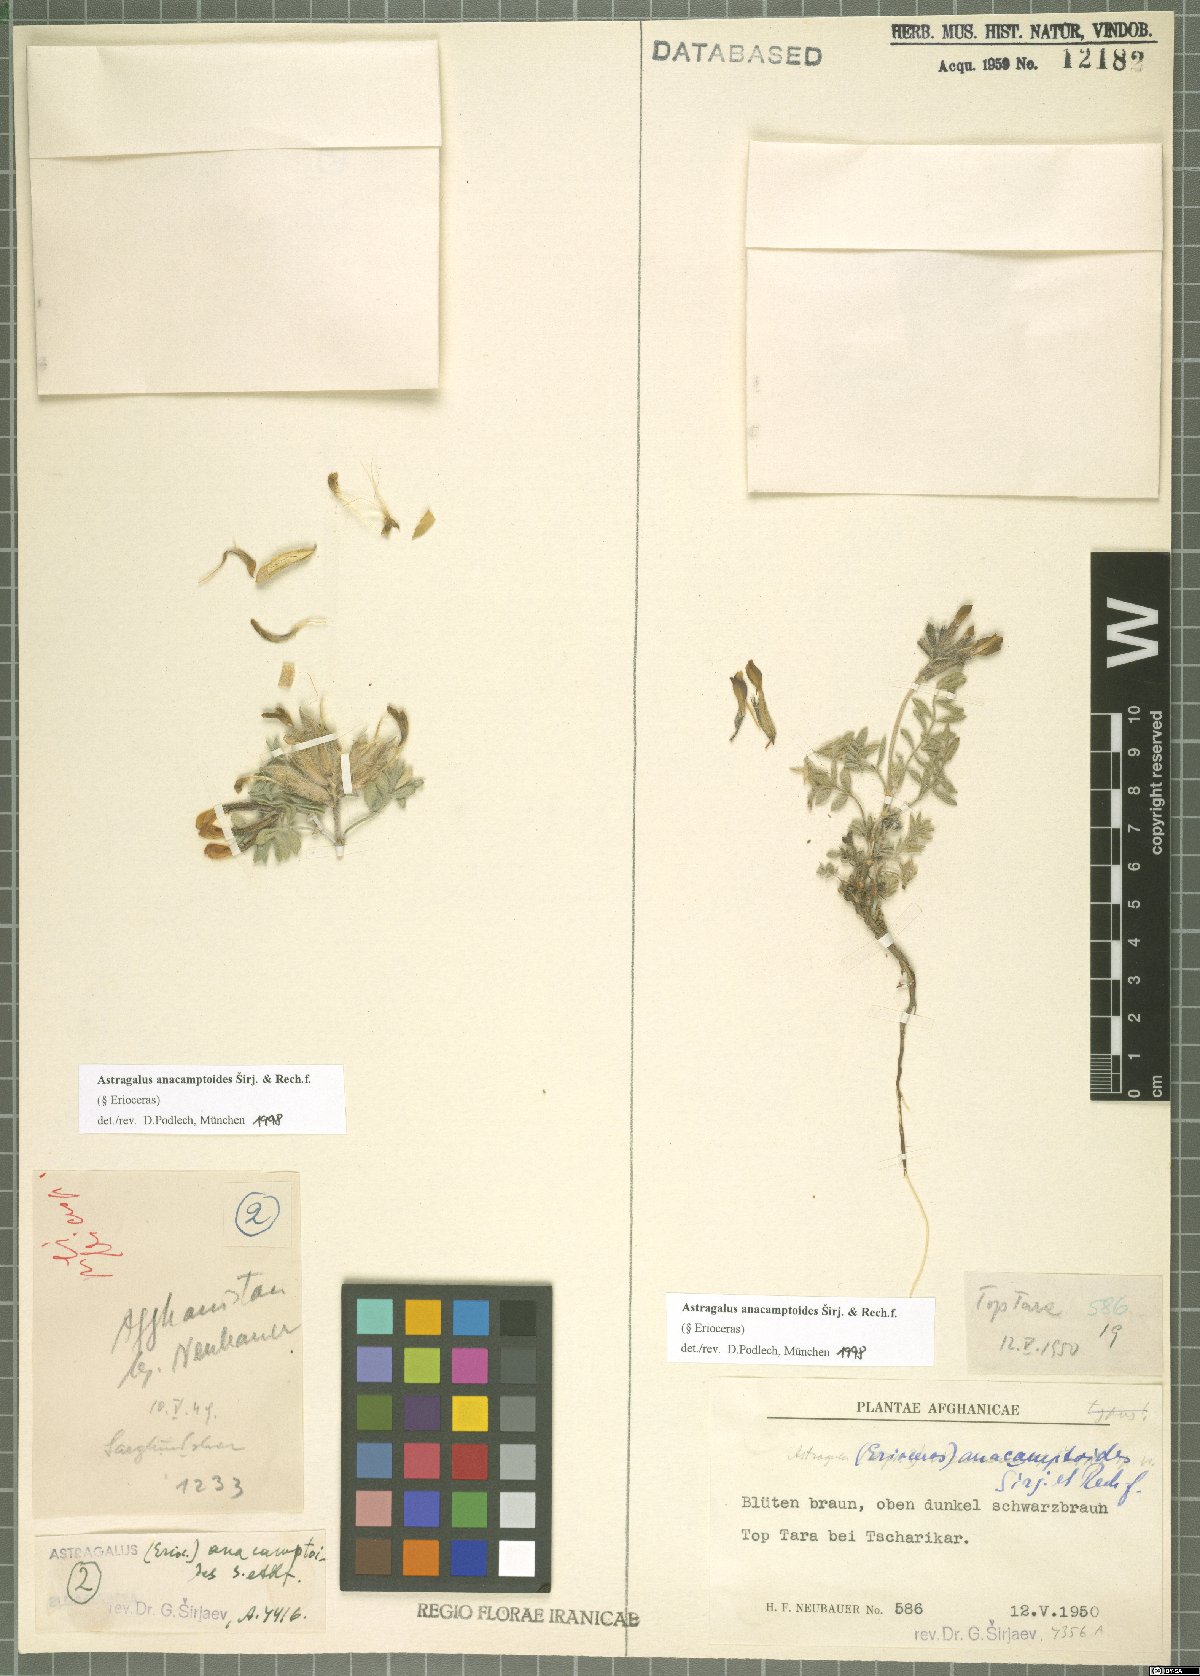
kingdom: Plantae
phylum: Tracheophyta
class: Magnoliopsida
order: Fabales
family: Fabaceae
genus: Astragalus
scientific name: Astragalus anacamptoides
